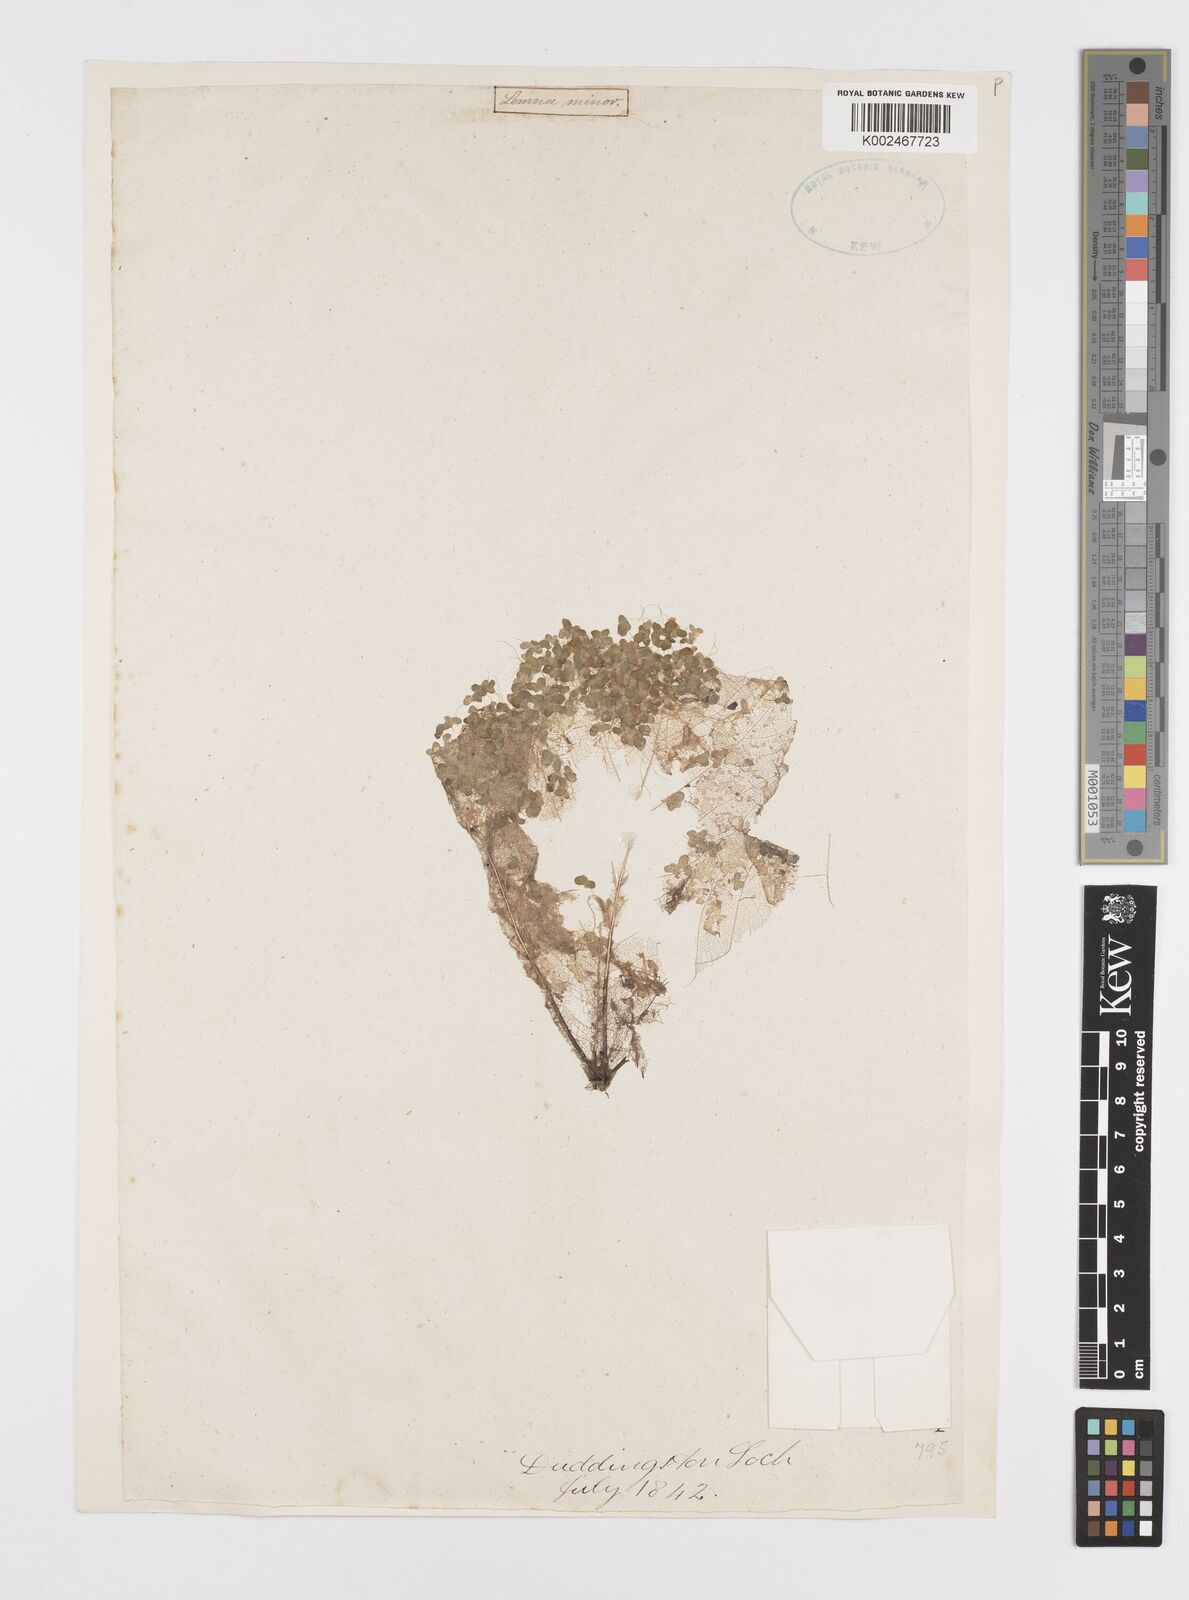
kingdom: Plantae
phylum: Tracheophyta
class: Liliopsida
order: Alismatales
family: Araceae
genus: Lemna
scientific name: Lemna minor
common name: Common duckweed
